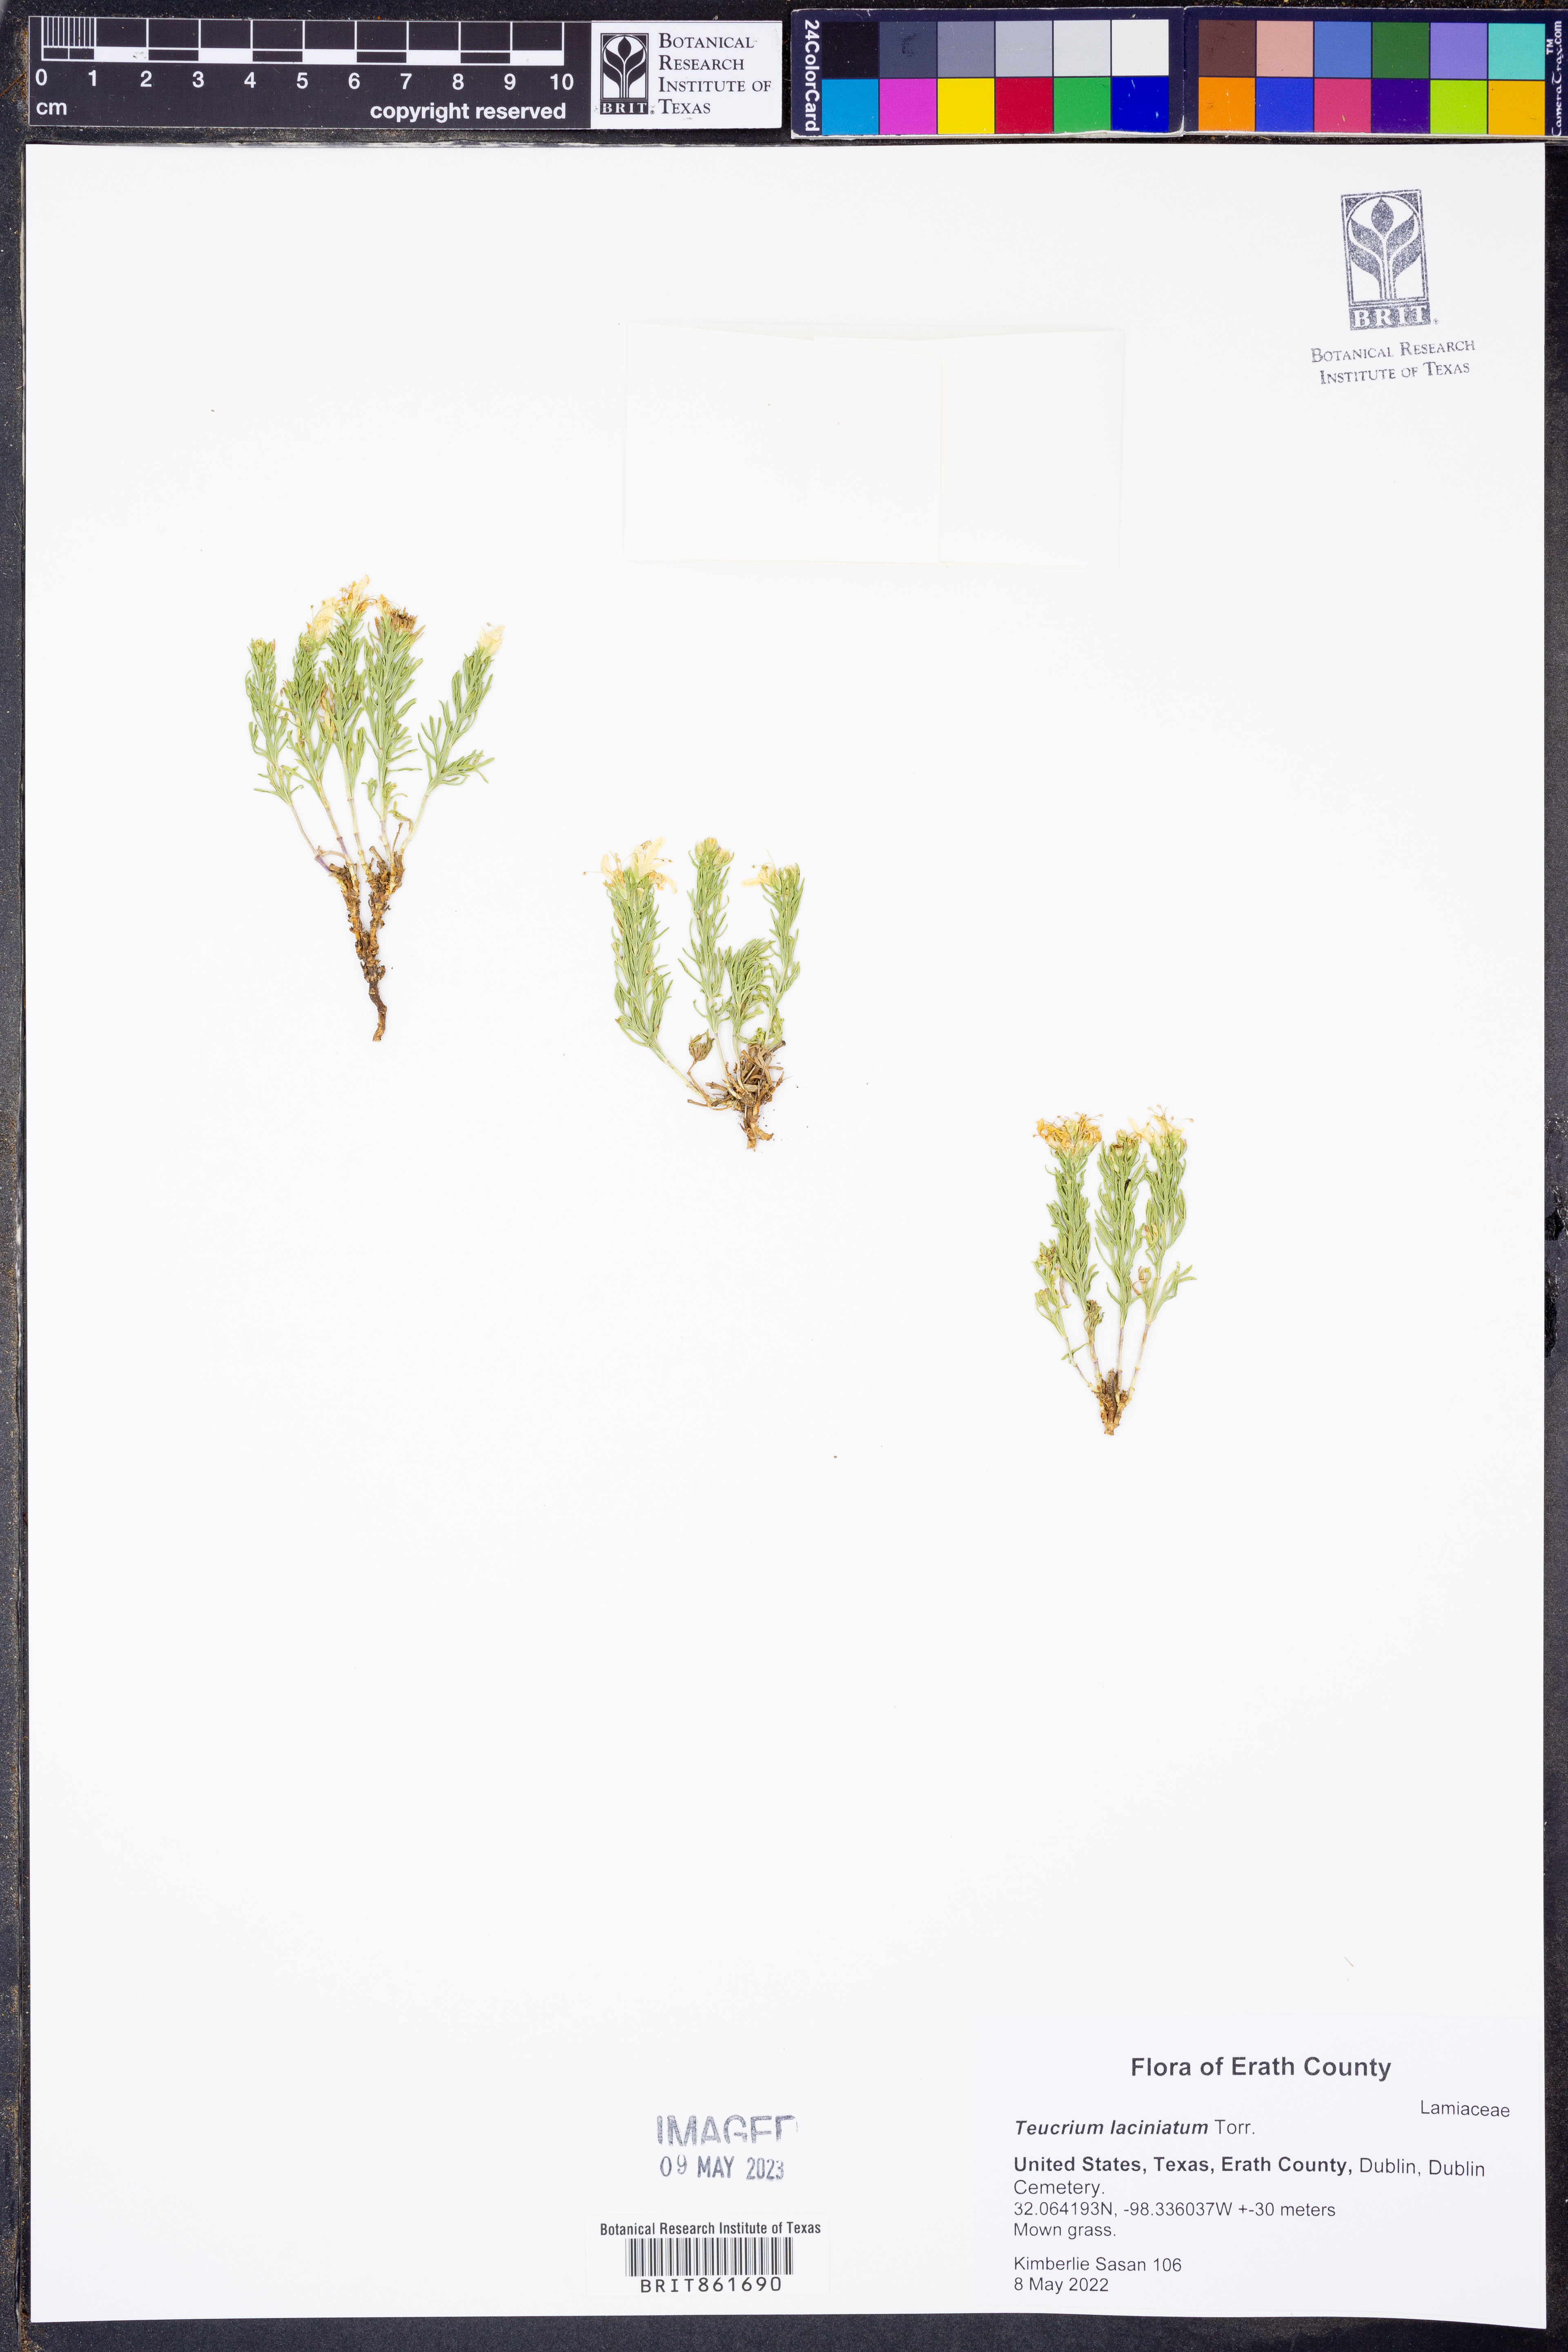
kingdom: Plantae
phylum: Tracheophyta
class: Magnoliopsida
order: Lamiales
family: Lamiaceae
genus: Teucrium
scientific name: Teucrium laciniatum
